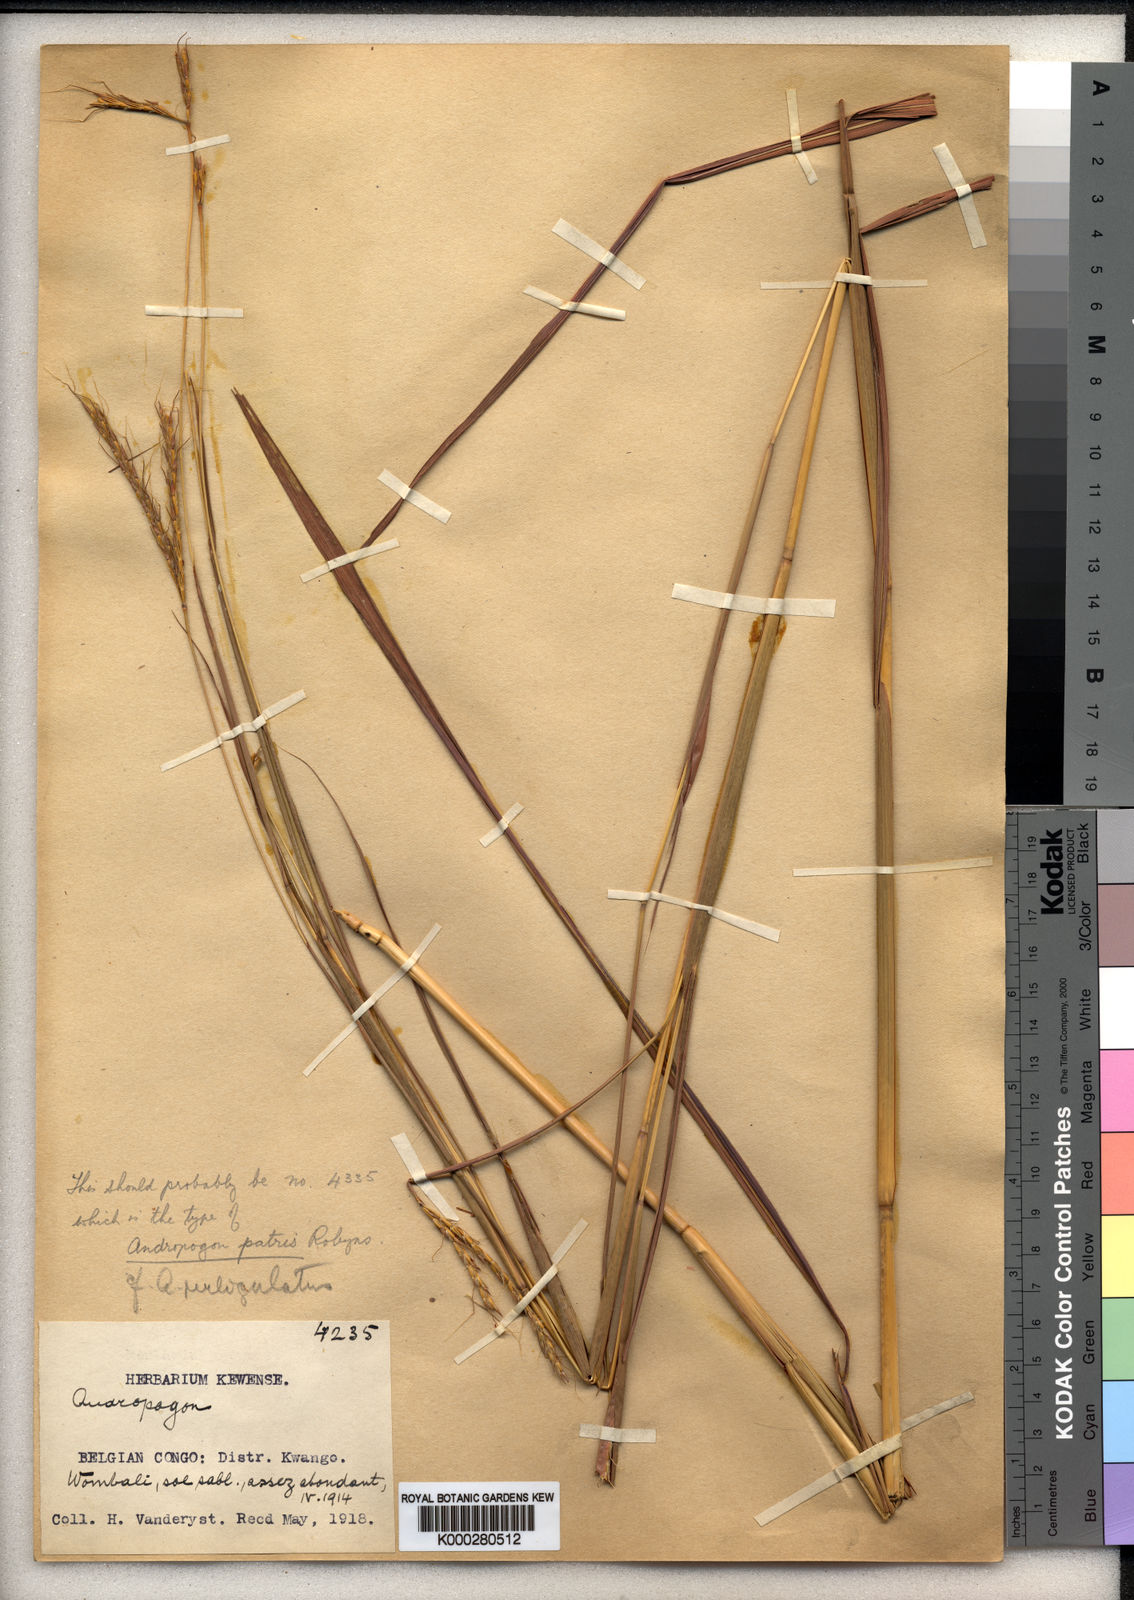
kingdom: Plantae
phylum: Tracheophyta
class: Liliopsida
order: Poales
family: Poaceae
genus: Andropogon
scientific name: Andropogon chinensis
